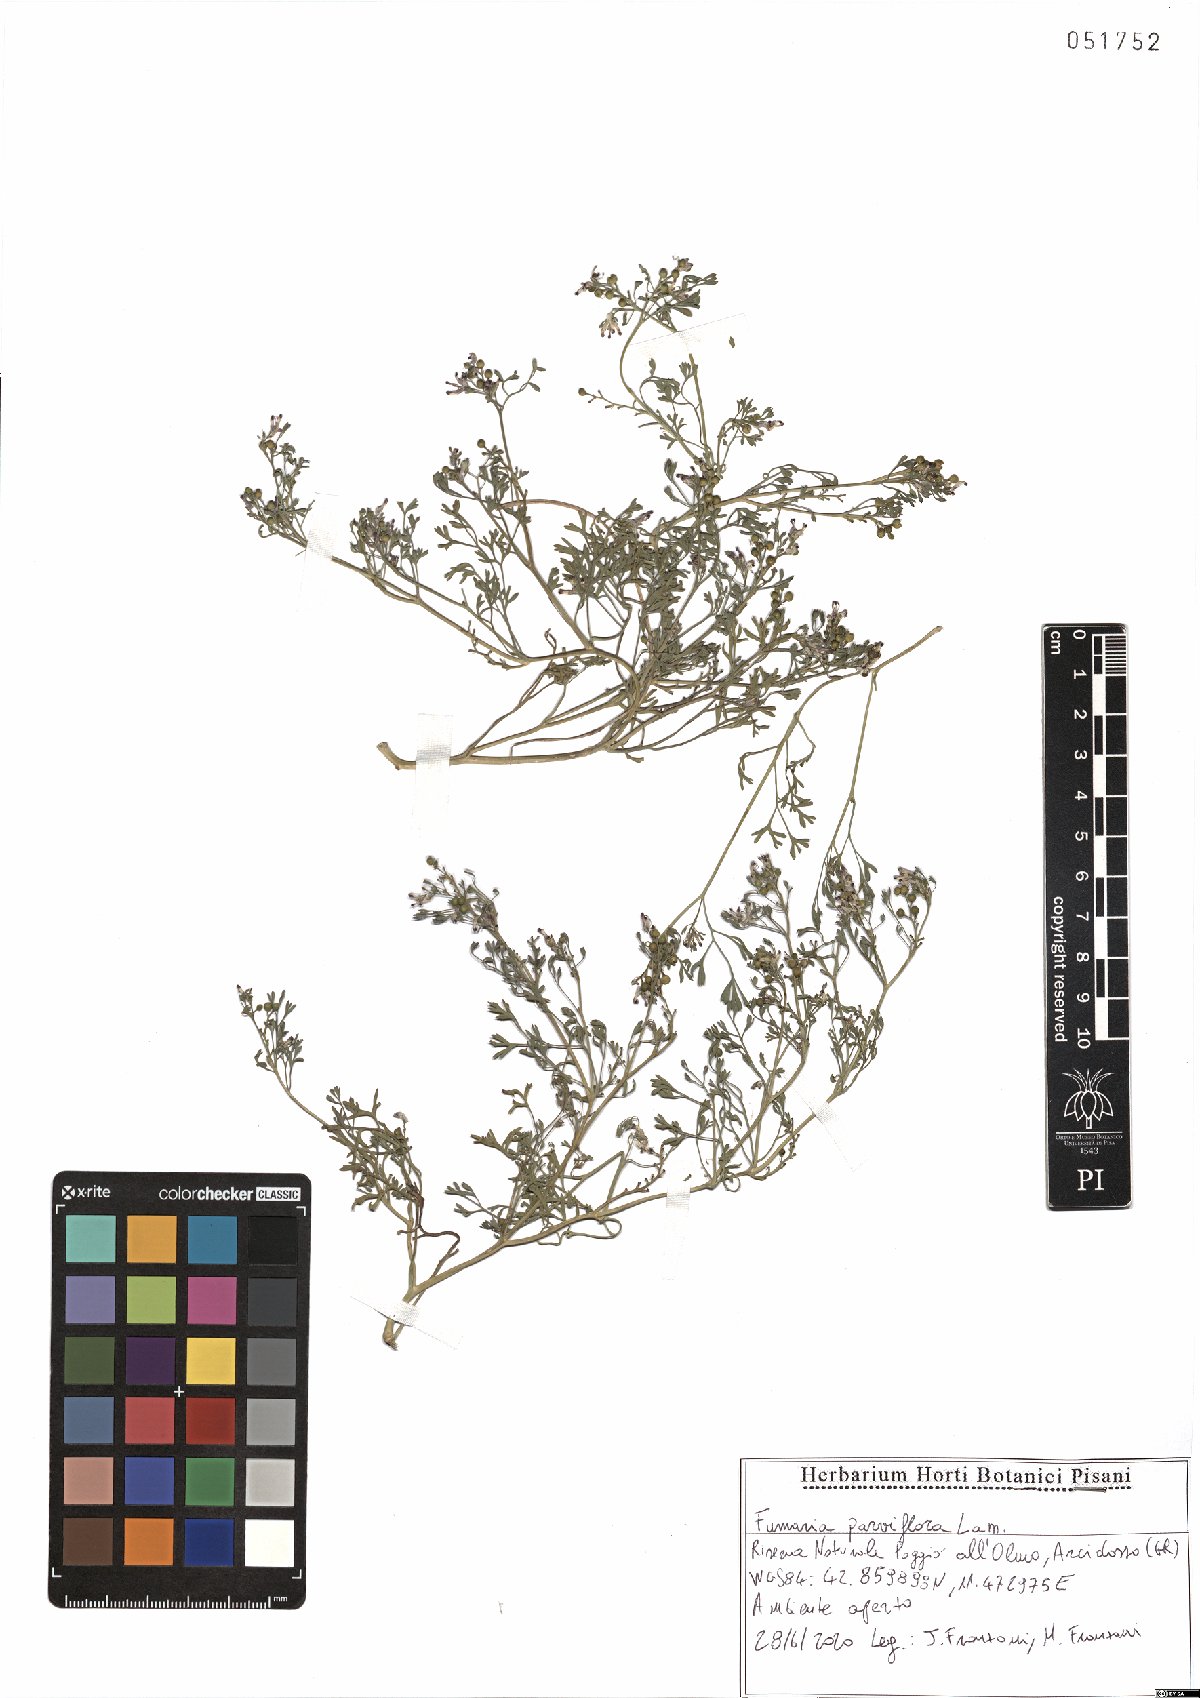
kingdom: Plantae
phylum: Tracheophyta
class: Magnoliopsida
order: Ranunculales
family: Papaveraceae
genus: Fumaria
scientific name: Fumaria parviflora
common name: Fine-leaved fumitory
